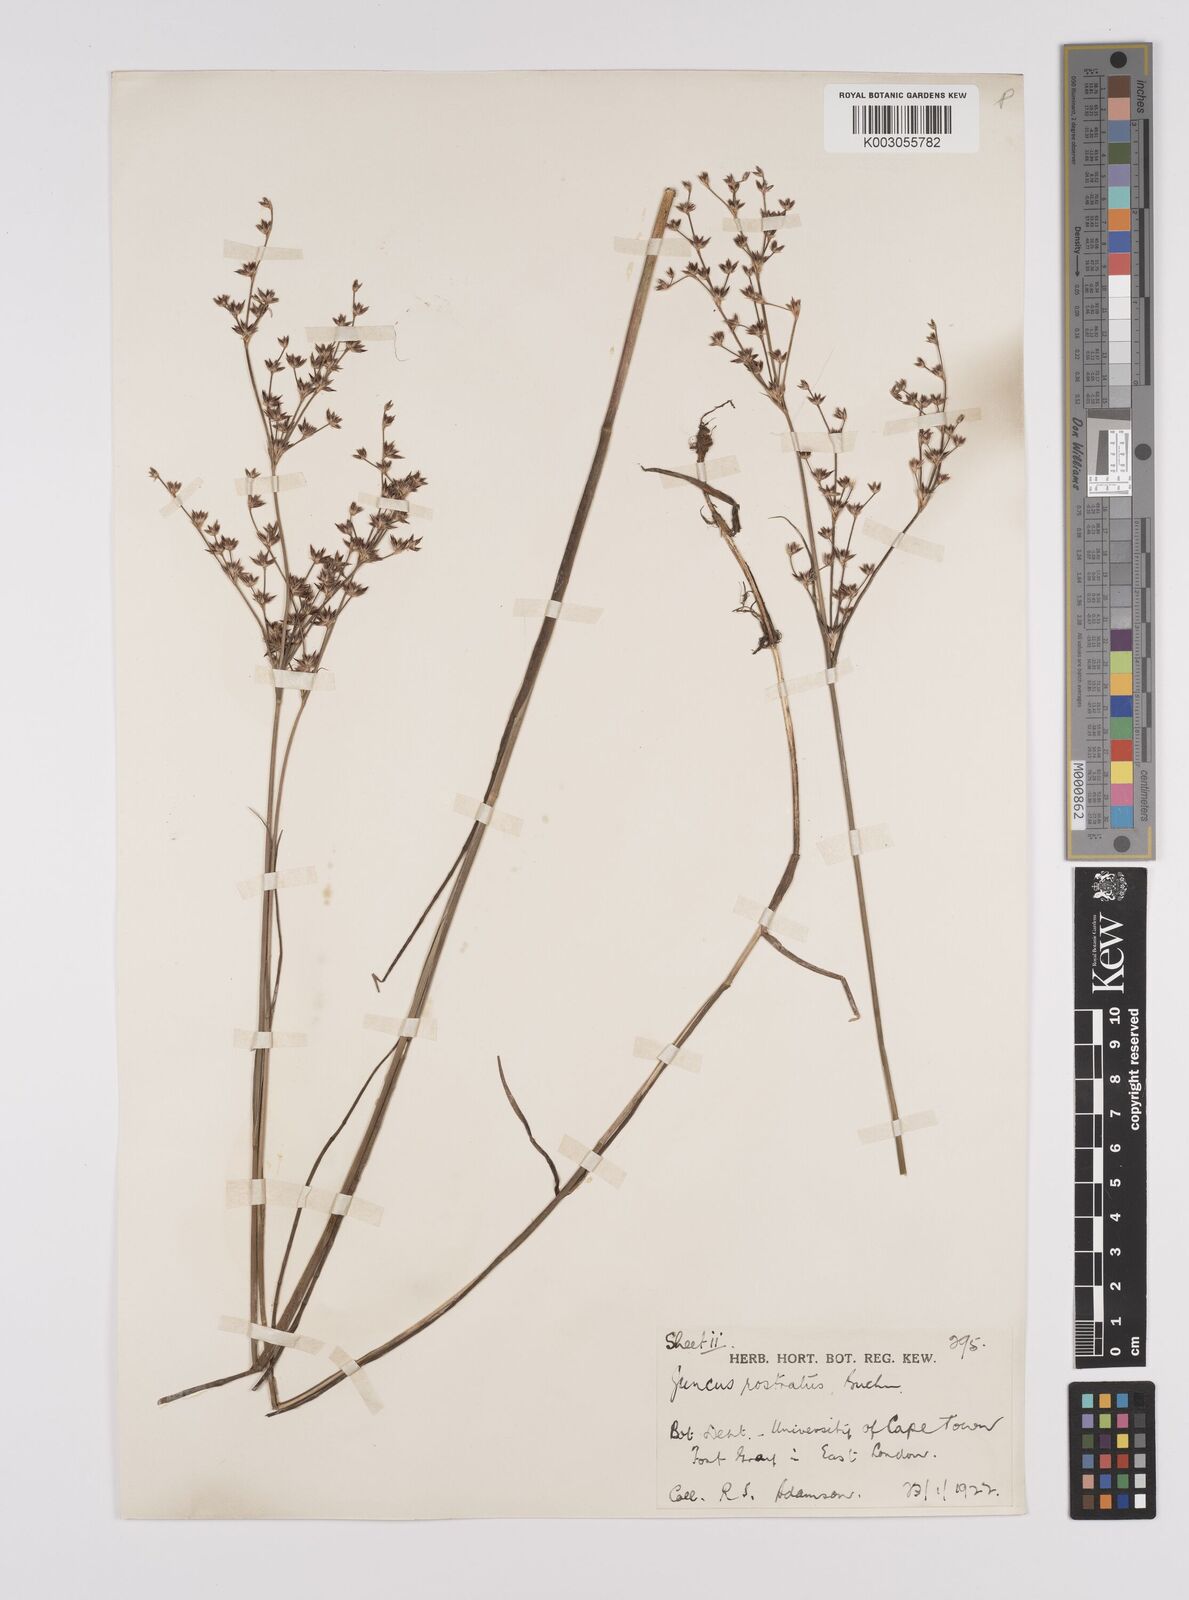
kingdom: Plantae
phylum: Tracheophyta
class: Liliopsida
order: Poales
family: Juncaceae
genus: Juncus
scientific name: Juncus exsertus
